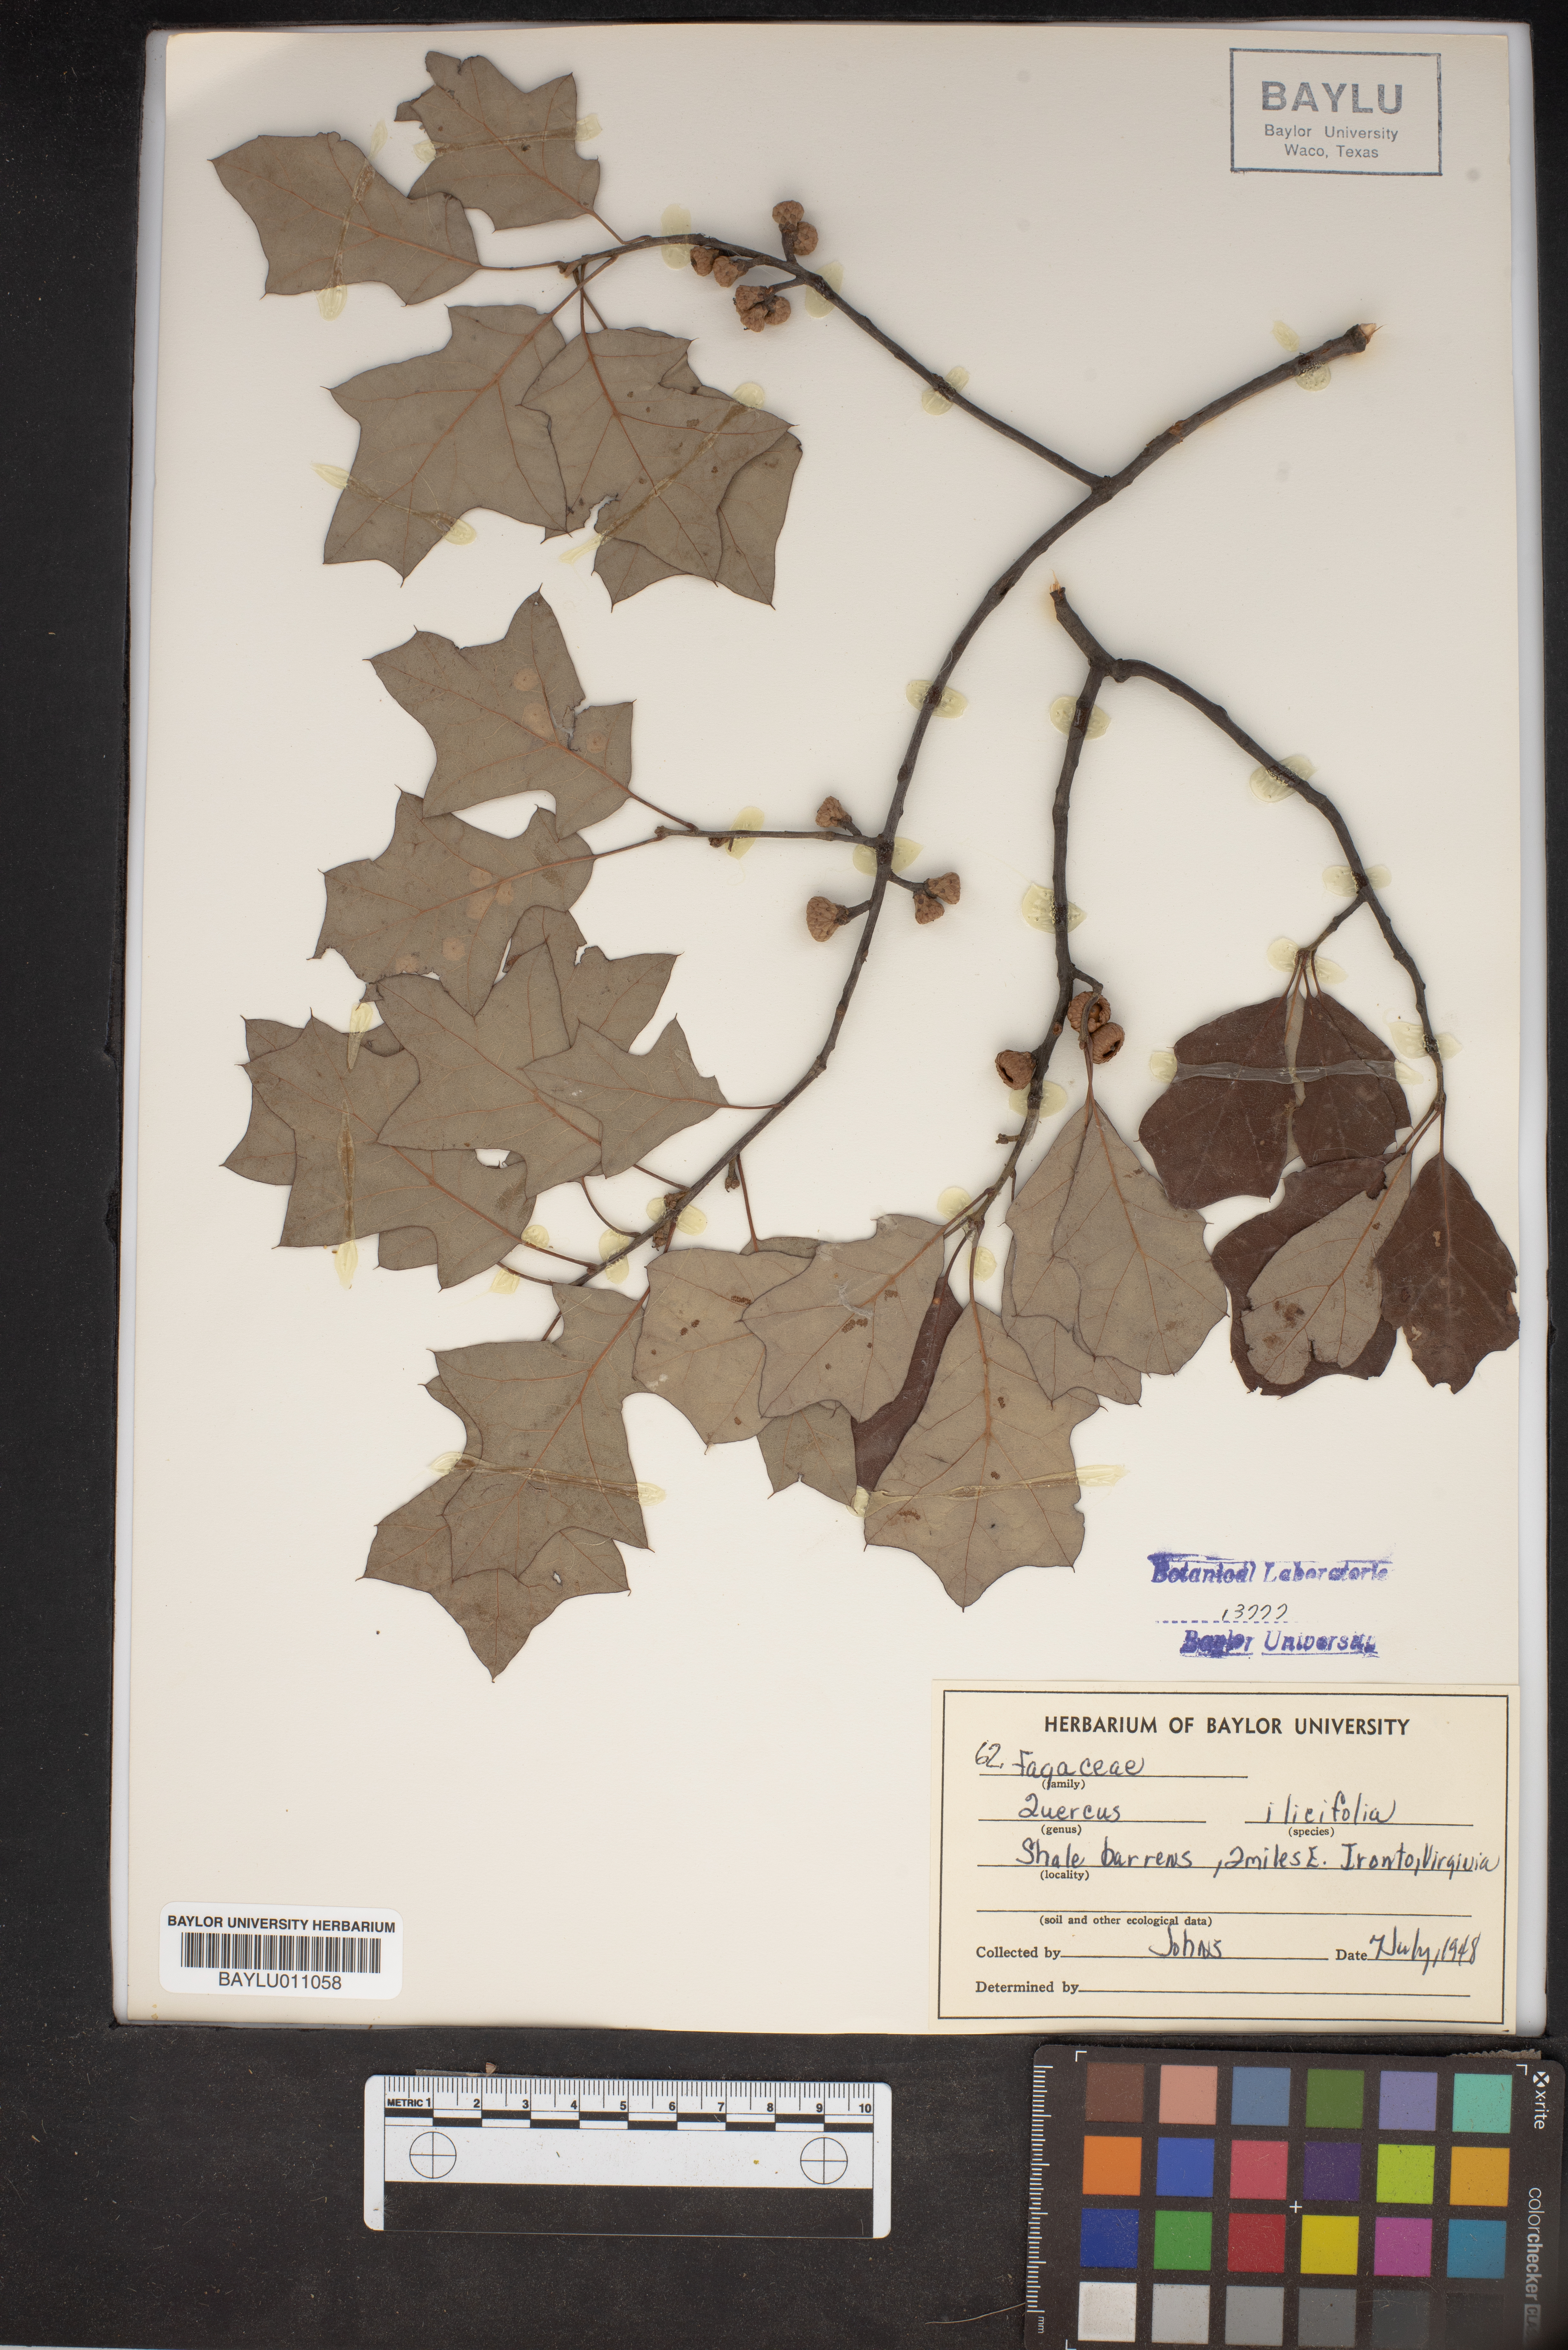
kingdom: Plantae
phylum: Tracheophyta
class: Magnoliopsida
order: Fagales
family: Fagaceae
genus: Quercus
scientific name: Quercus ilicifolia
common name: Bear oak
